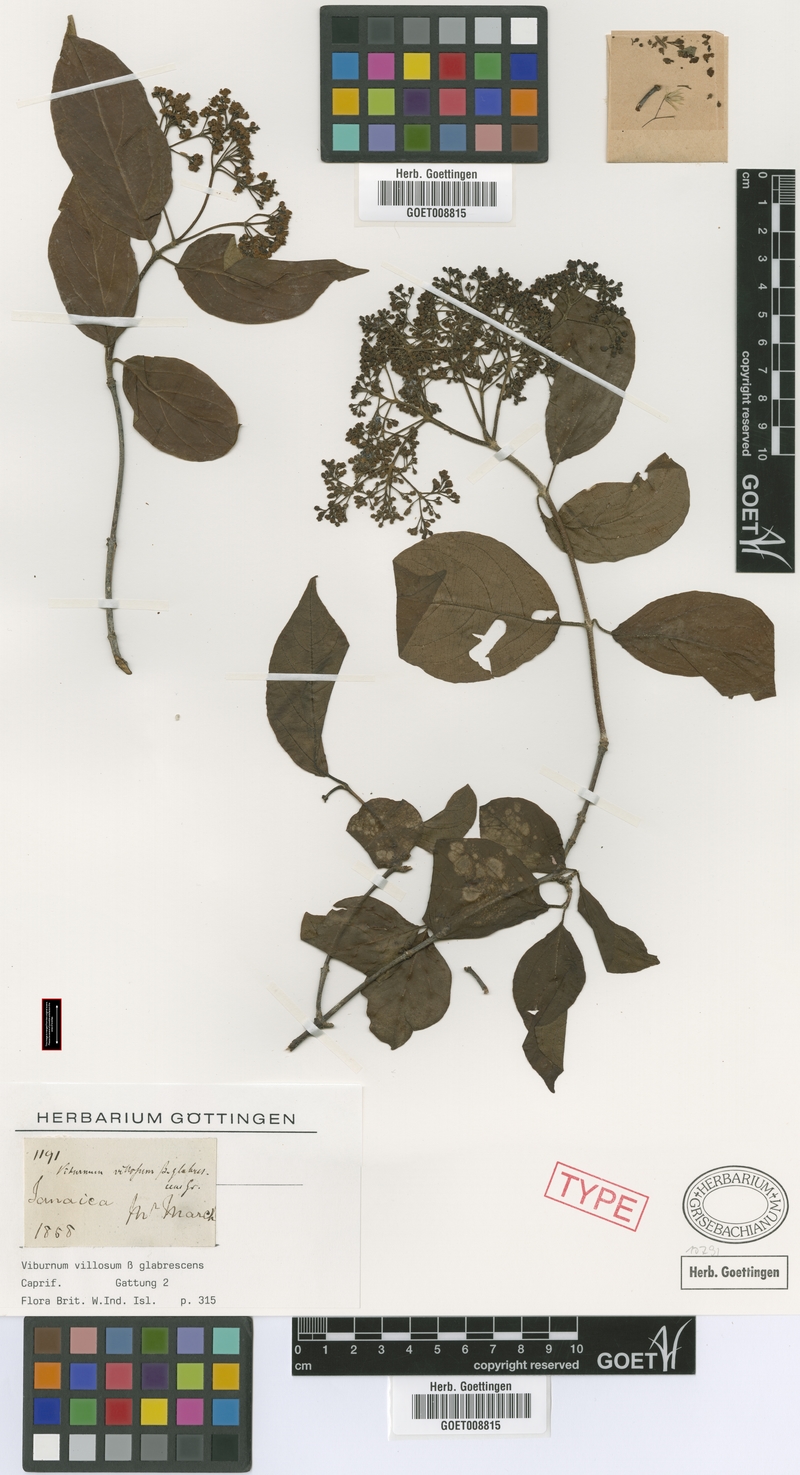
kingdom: Plantae
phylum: Tracheophyta
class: Magnoliopsida
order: Dipsacales
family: Viburnaceae
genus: Viburnum
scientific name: Viburnum villosum
